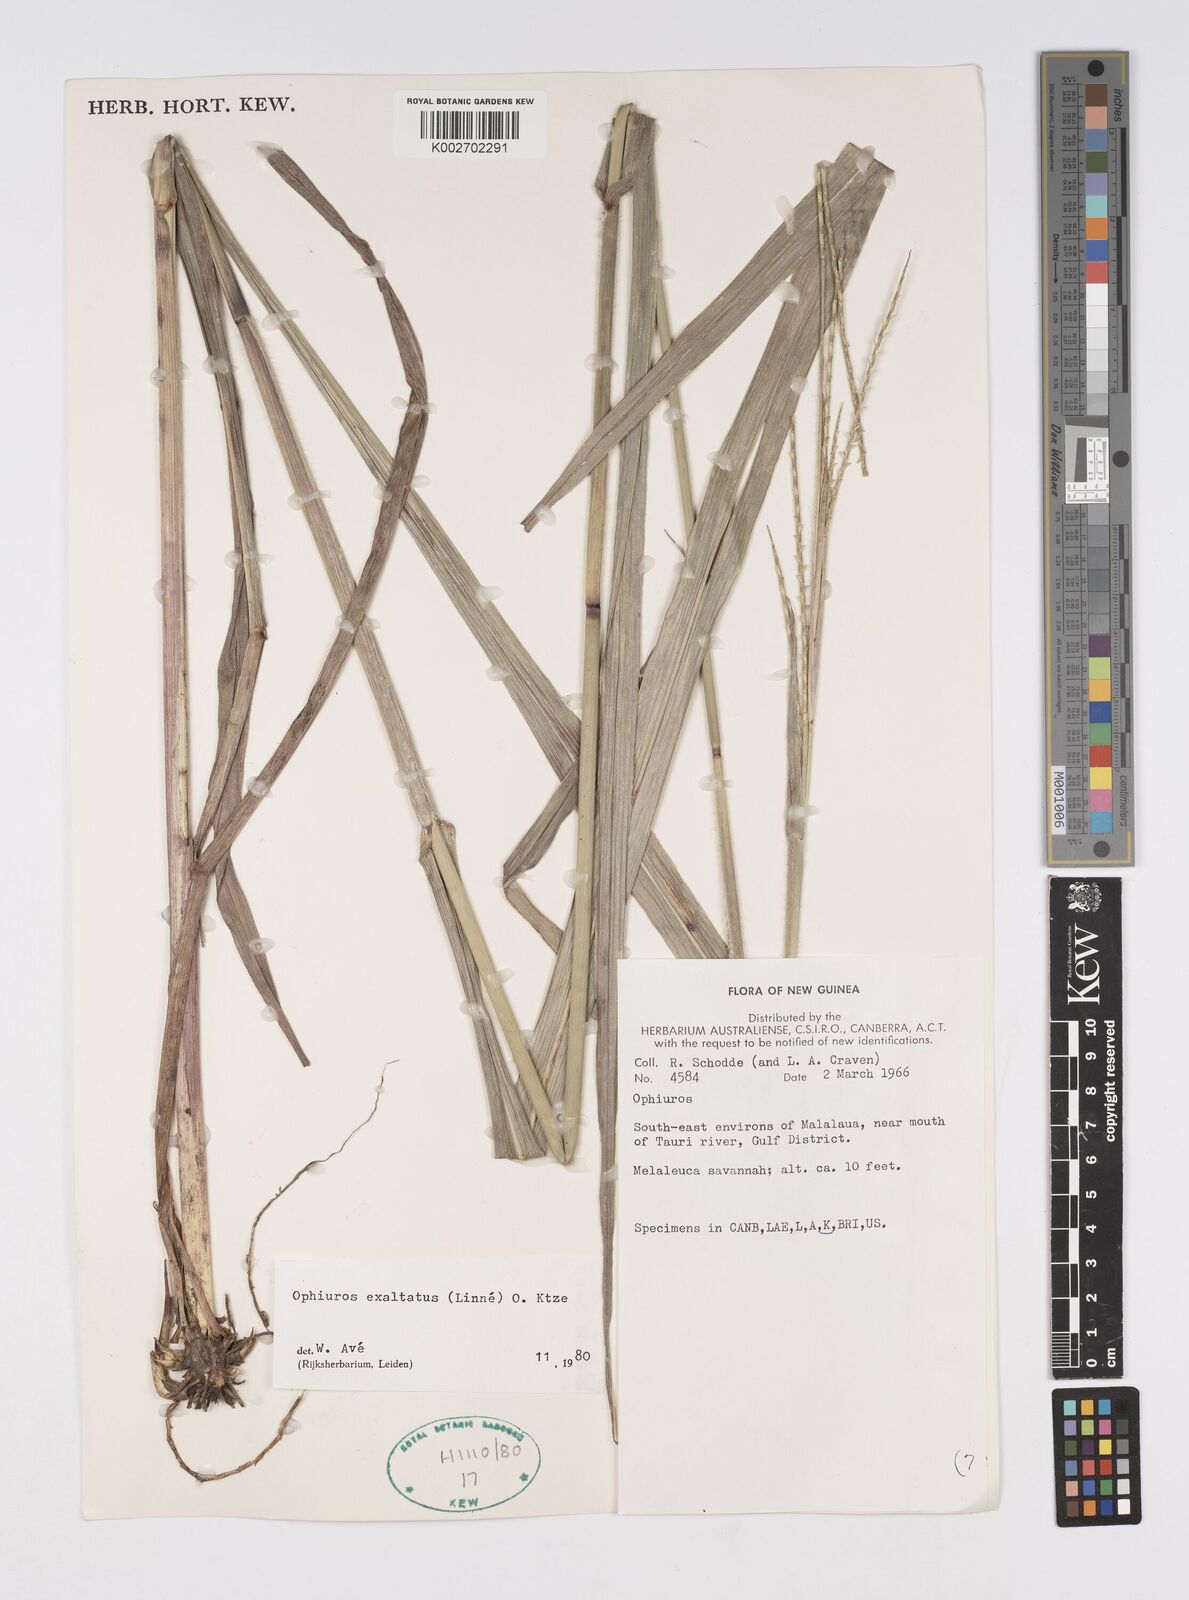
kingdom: Plantae
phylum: Tracheophyta
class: Liliopsida
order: Poales
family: Poaceae
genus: Ophiuros
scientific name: Ophiuros megaphyllus
